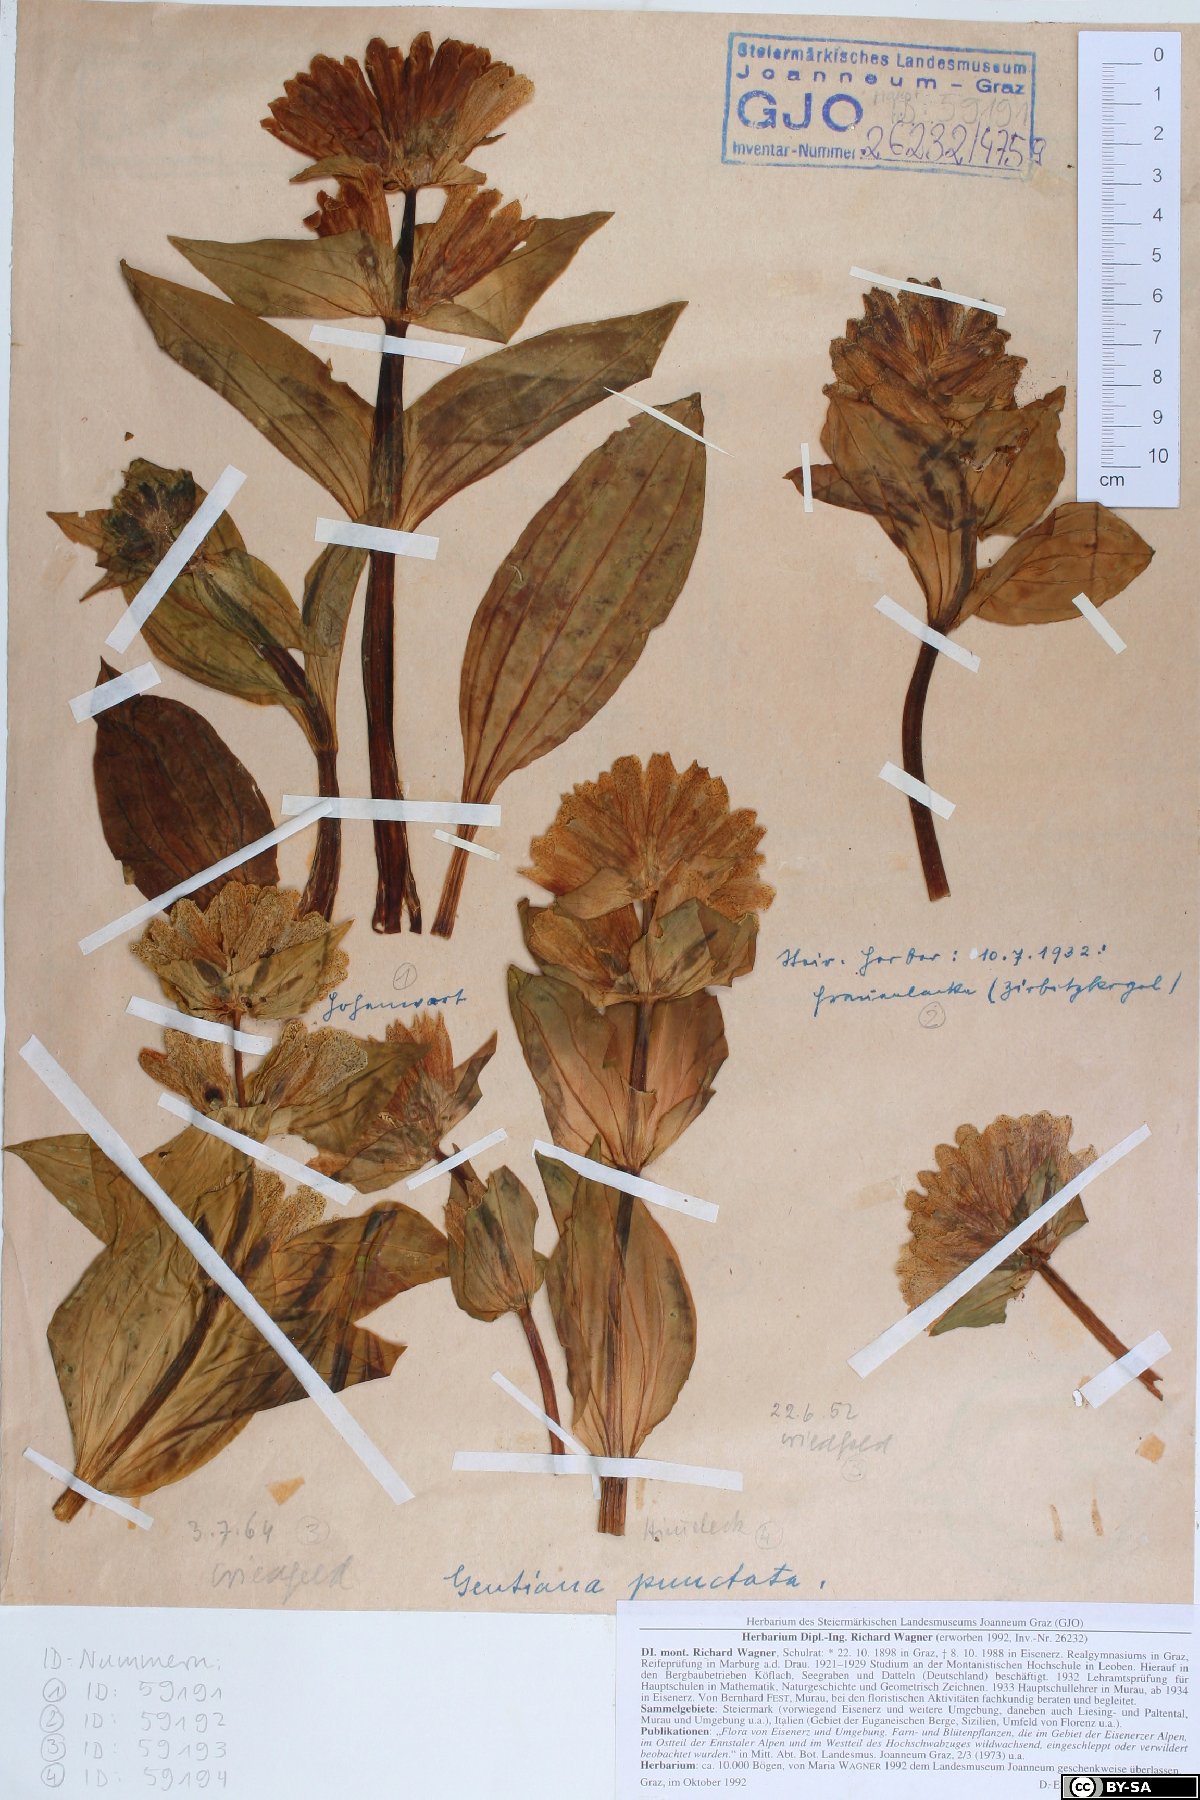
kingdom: Plantae
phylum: Tracheophyta
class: Magnoliopsida
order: Gentianales
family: Gentianaceae
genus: Gentiana
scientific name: Gentiana punctata
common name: Spotted gentian
